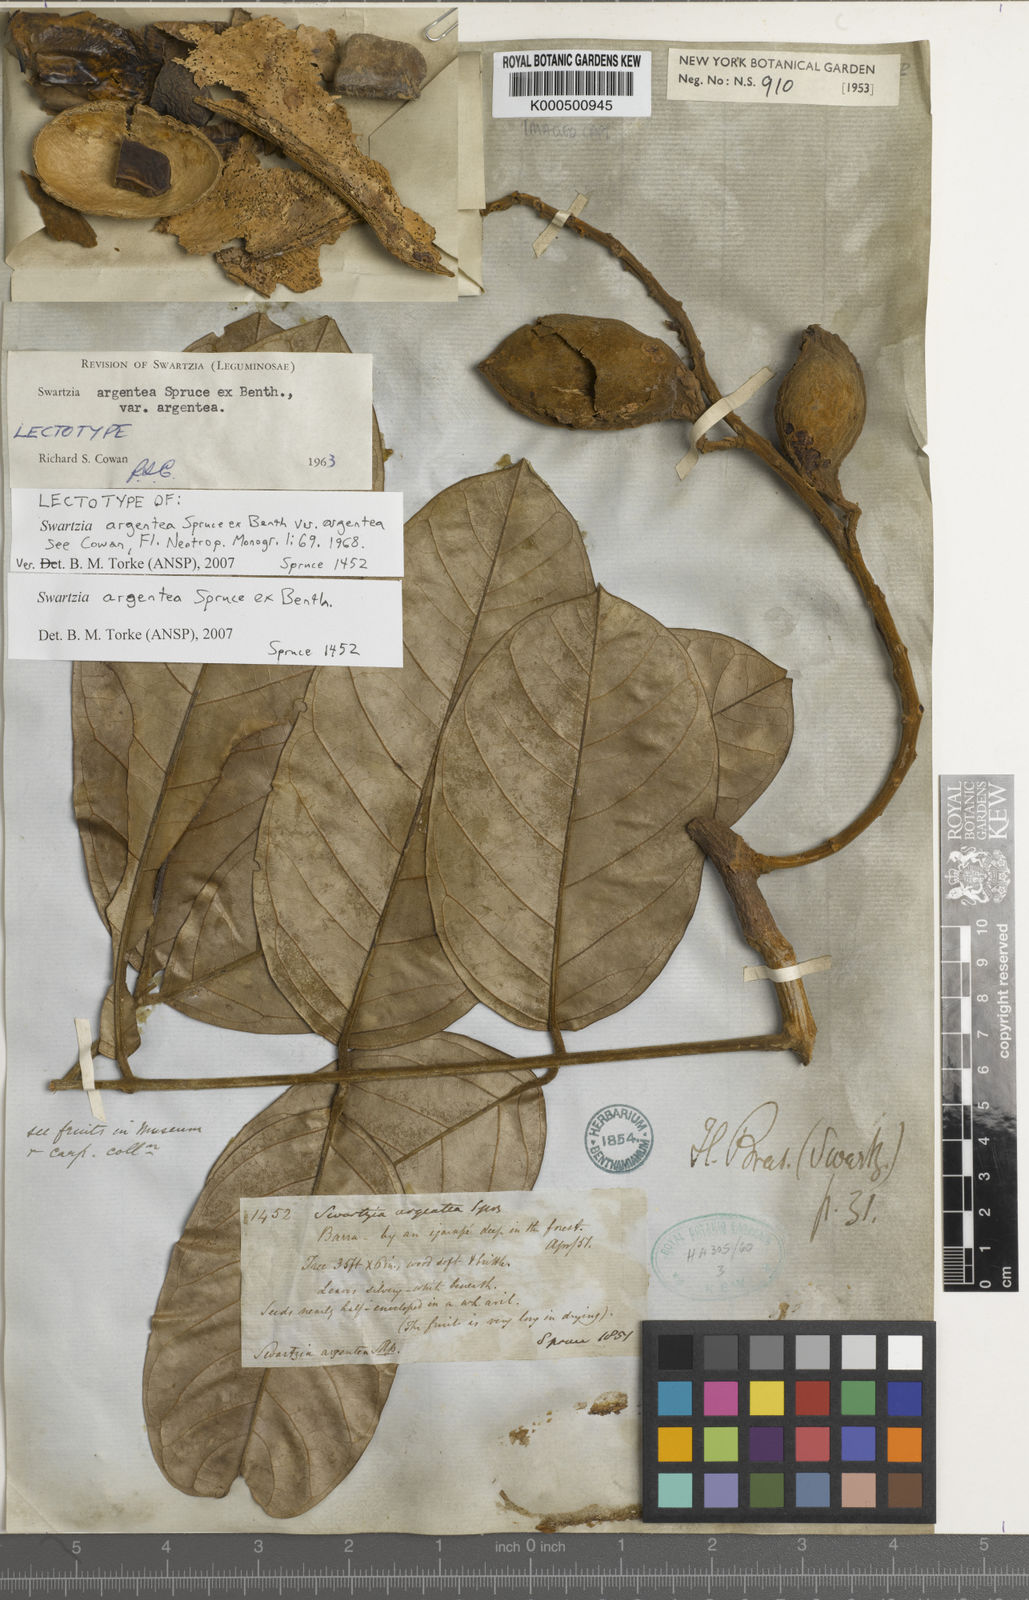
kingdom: Plantae
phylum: Tracheophyta
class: Magnoliopsida
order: Fabales
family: Fabaceae
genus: Swartzia
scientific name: Swartzia argentea
